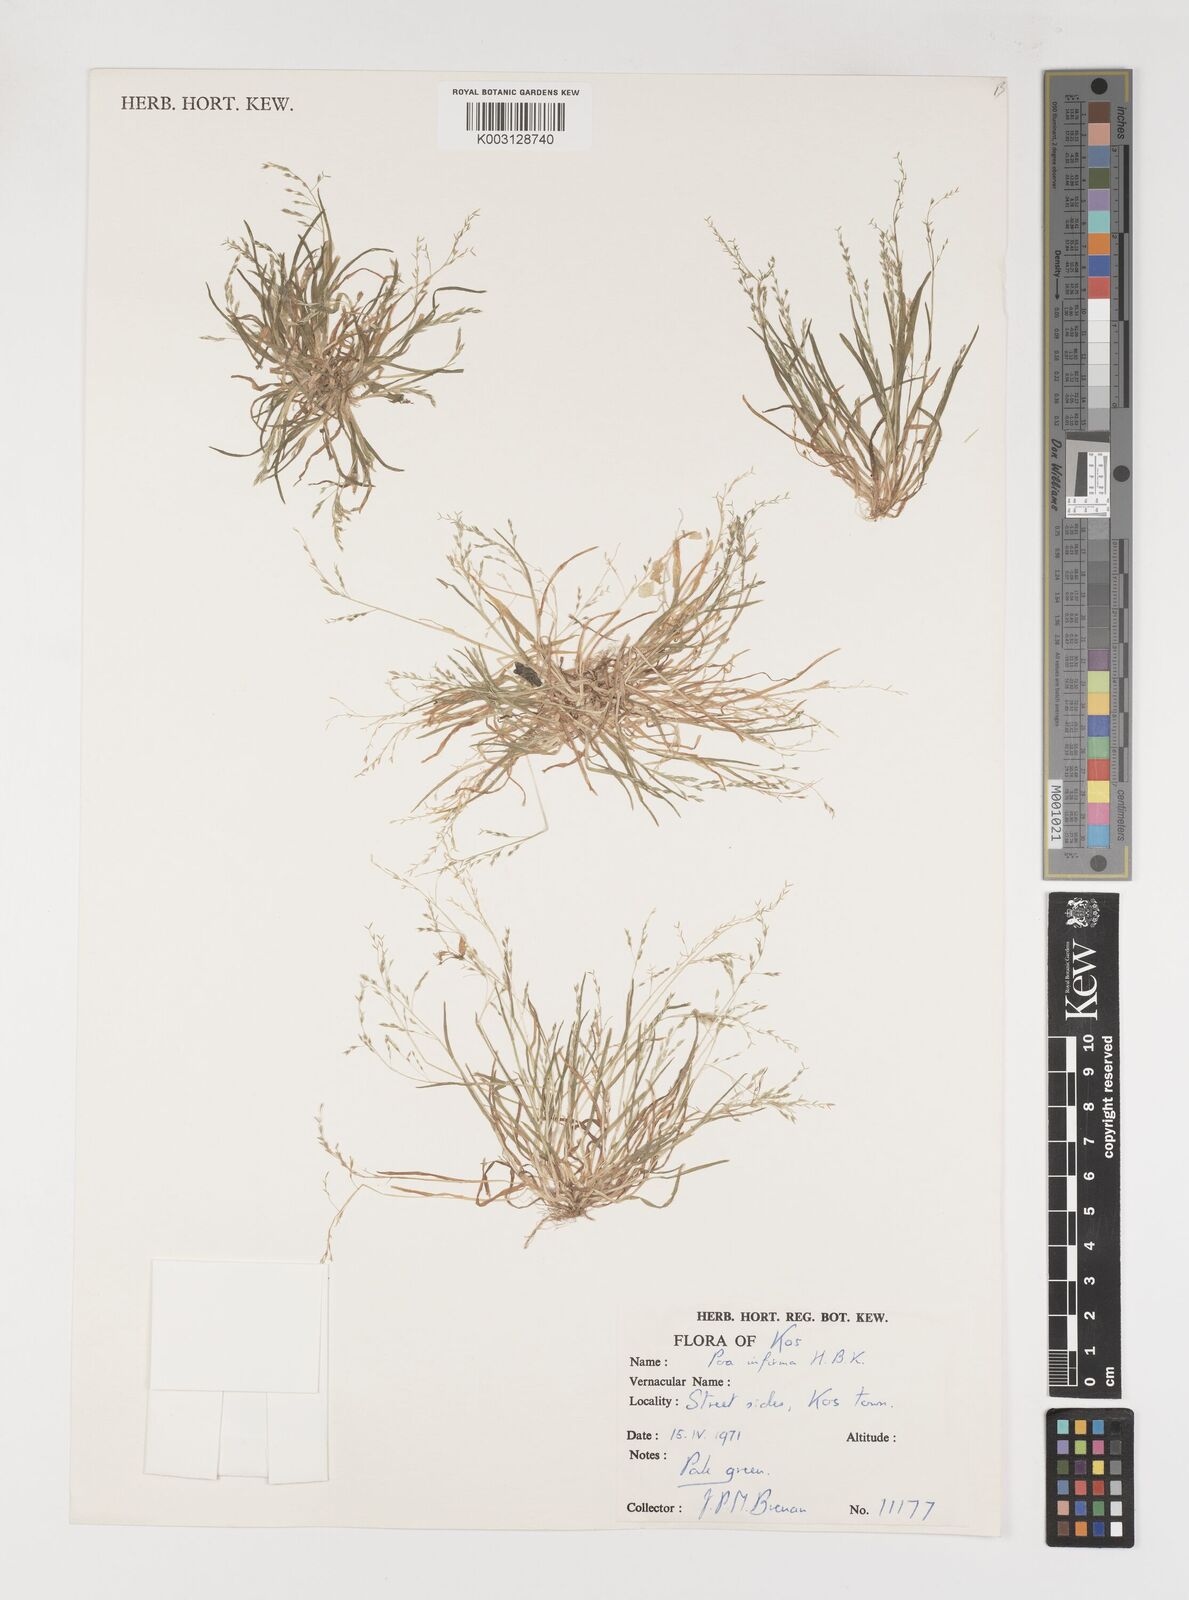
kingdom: Plantae
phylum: Tracheophyta
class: Liliopsida
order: Poales
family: Poaceae
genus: Poa
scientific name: Poa infirma
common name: Weak bluegrass
